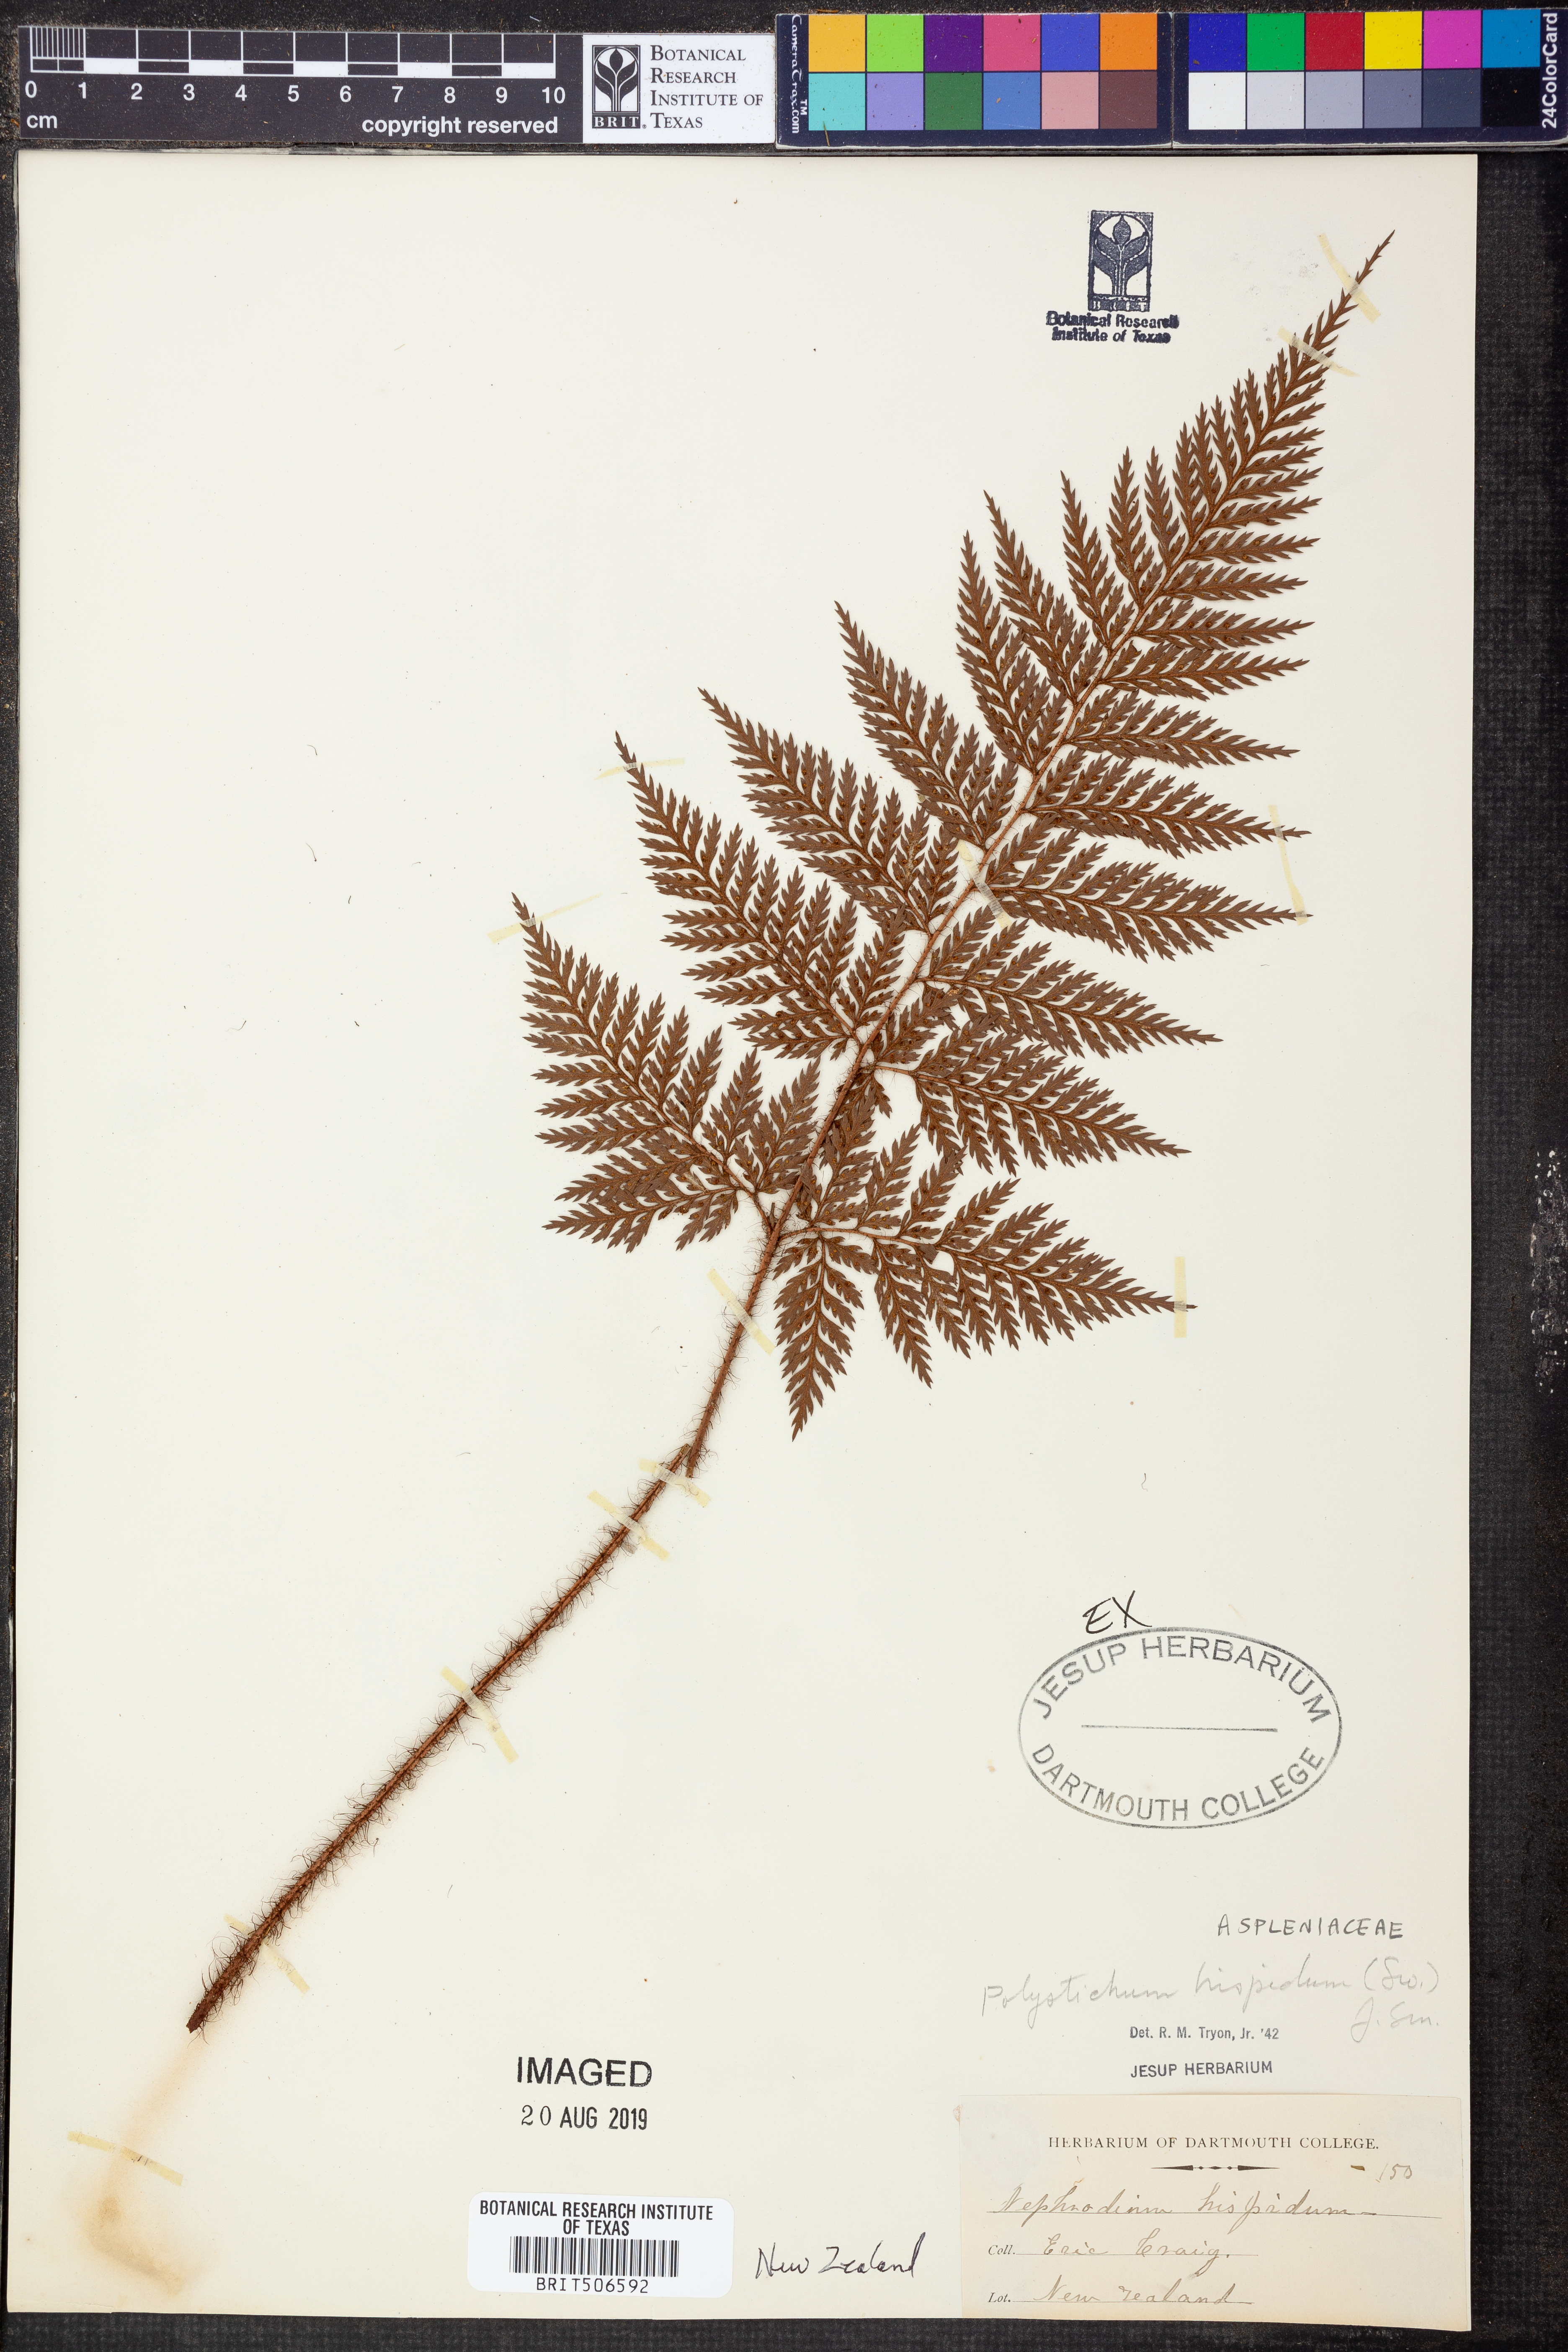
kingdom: Plantae
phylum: Tracheophyta
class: Polypodiopsida
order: Polypodiales
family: Dryopteridaceae
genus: Lastreopsis
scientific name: Lastreopsis hispida
